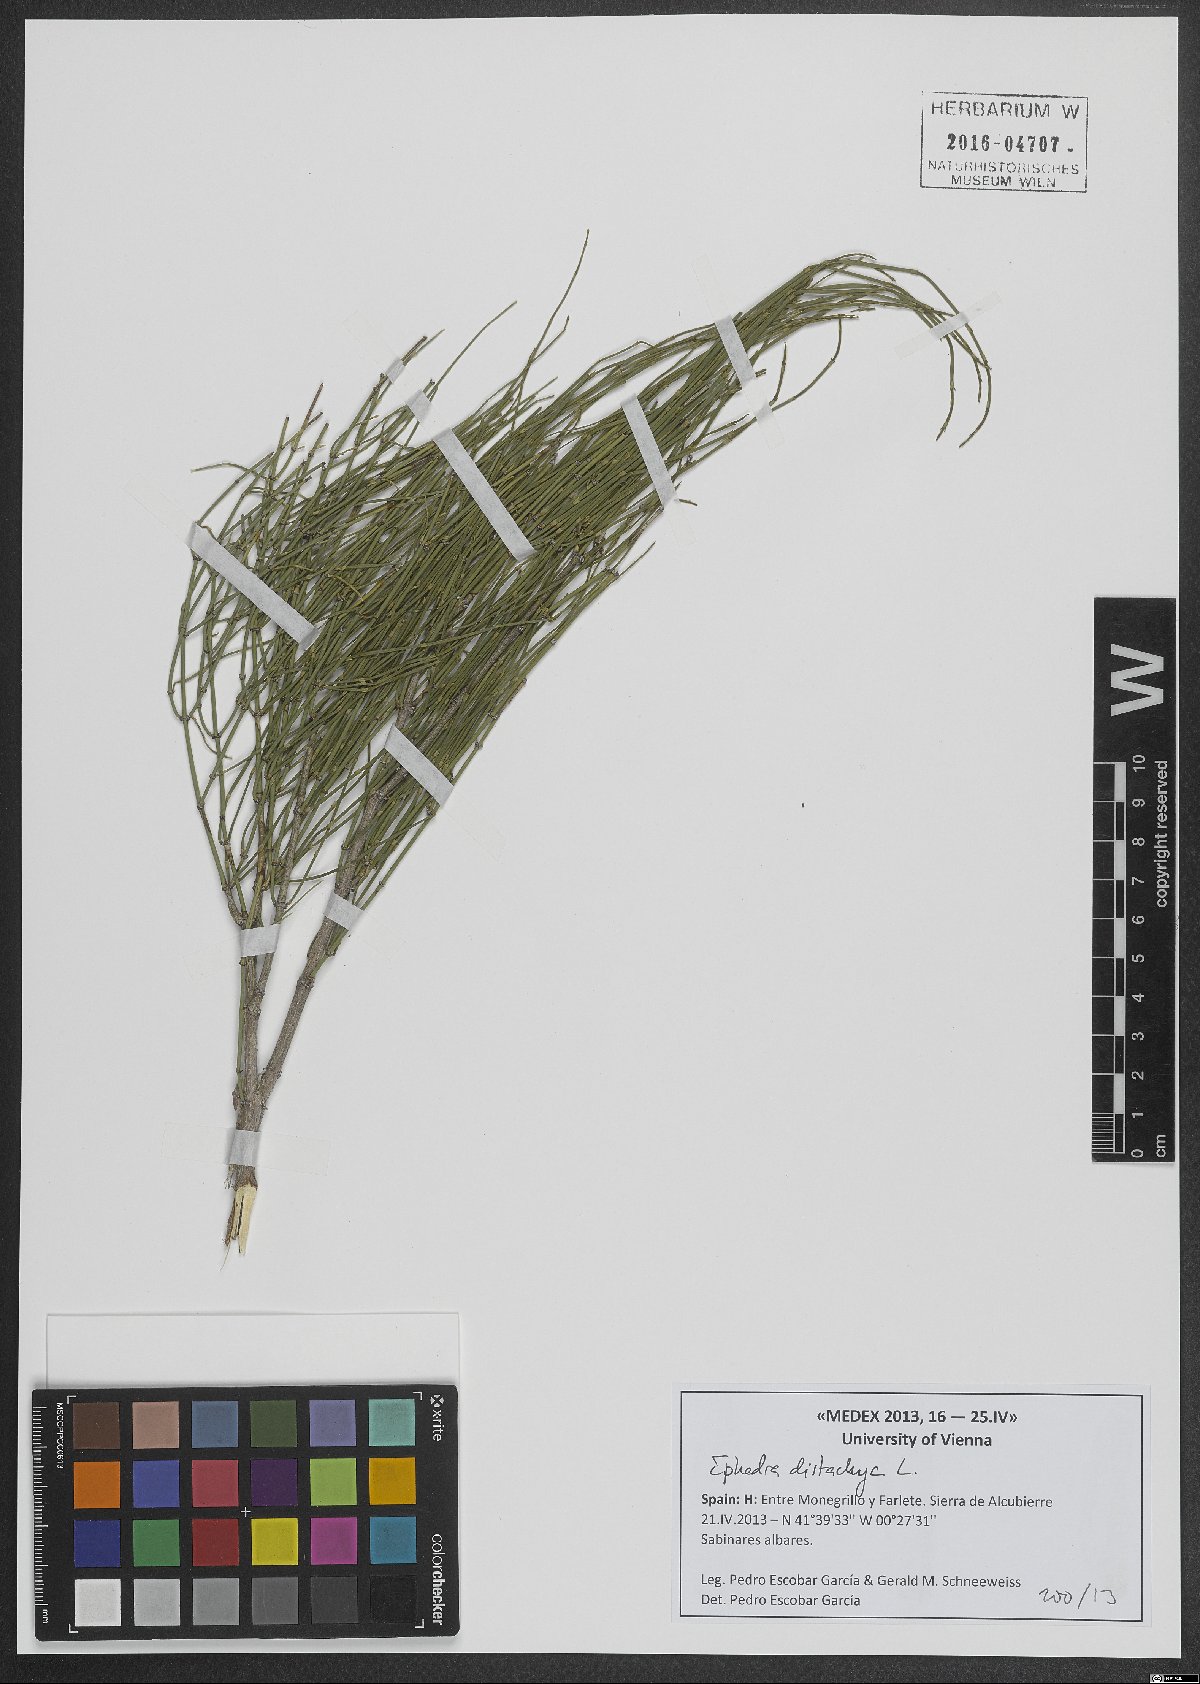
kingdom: Plantae
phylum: Tracheophyta
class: Gnetopsida
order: Ephedrales
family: Ephedraceae
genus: Ephedra
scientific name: Ephedra distachya
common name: Sea grape
